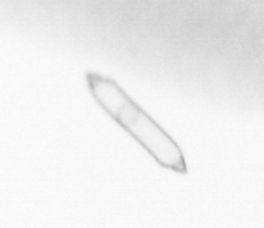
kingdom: Chromista
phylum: Ochrophyta
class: Bacillariophyceae
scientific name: Bacillariophyceae
